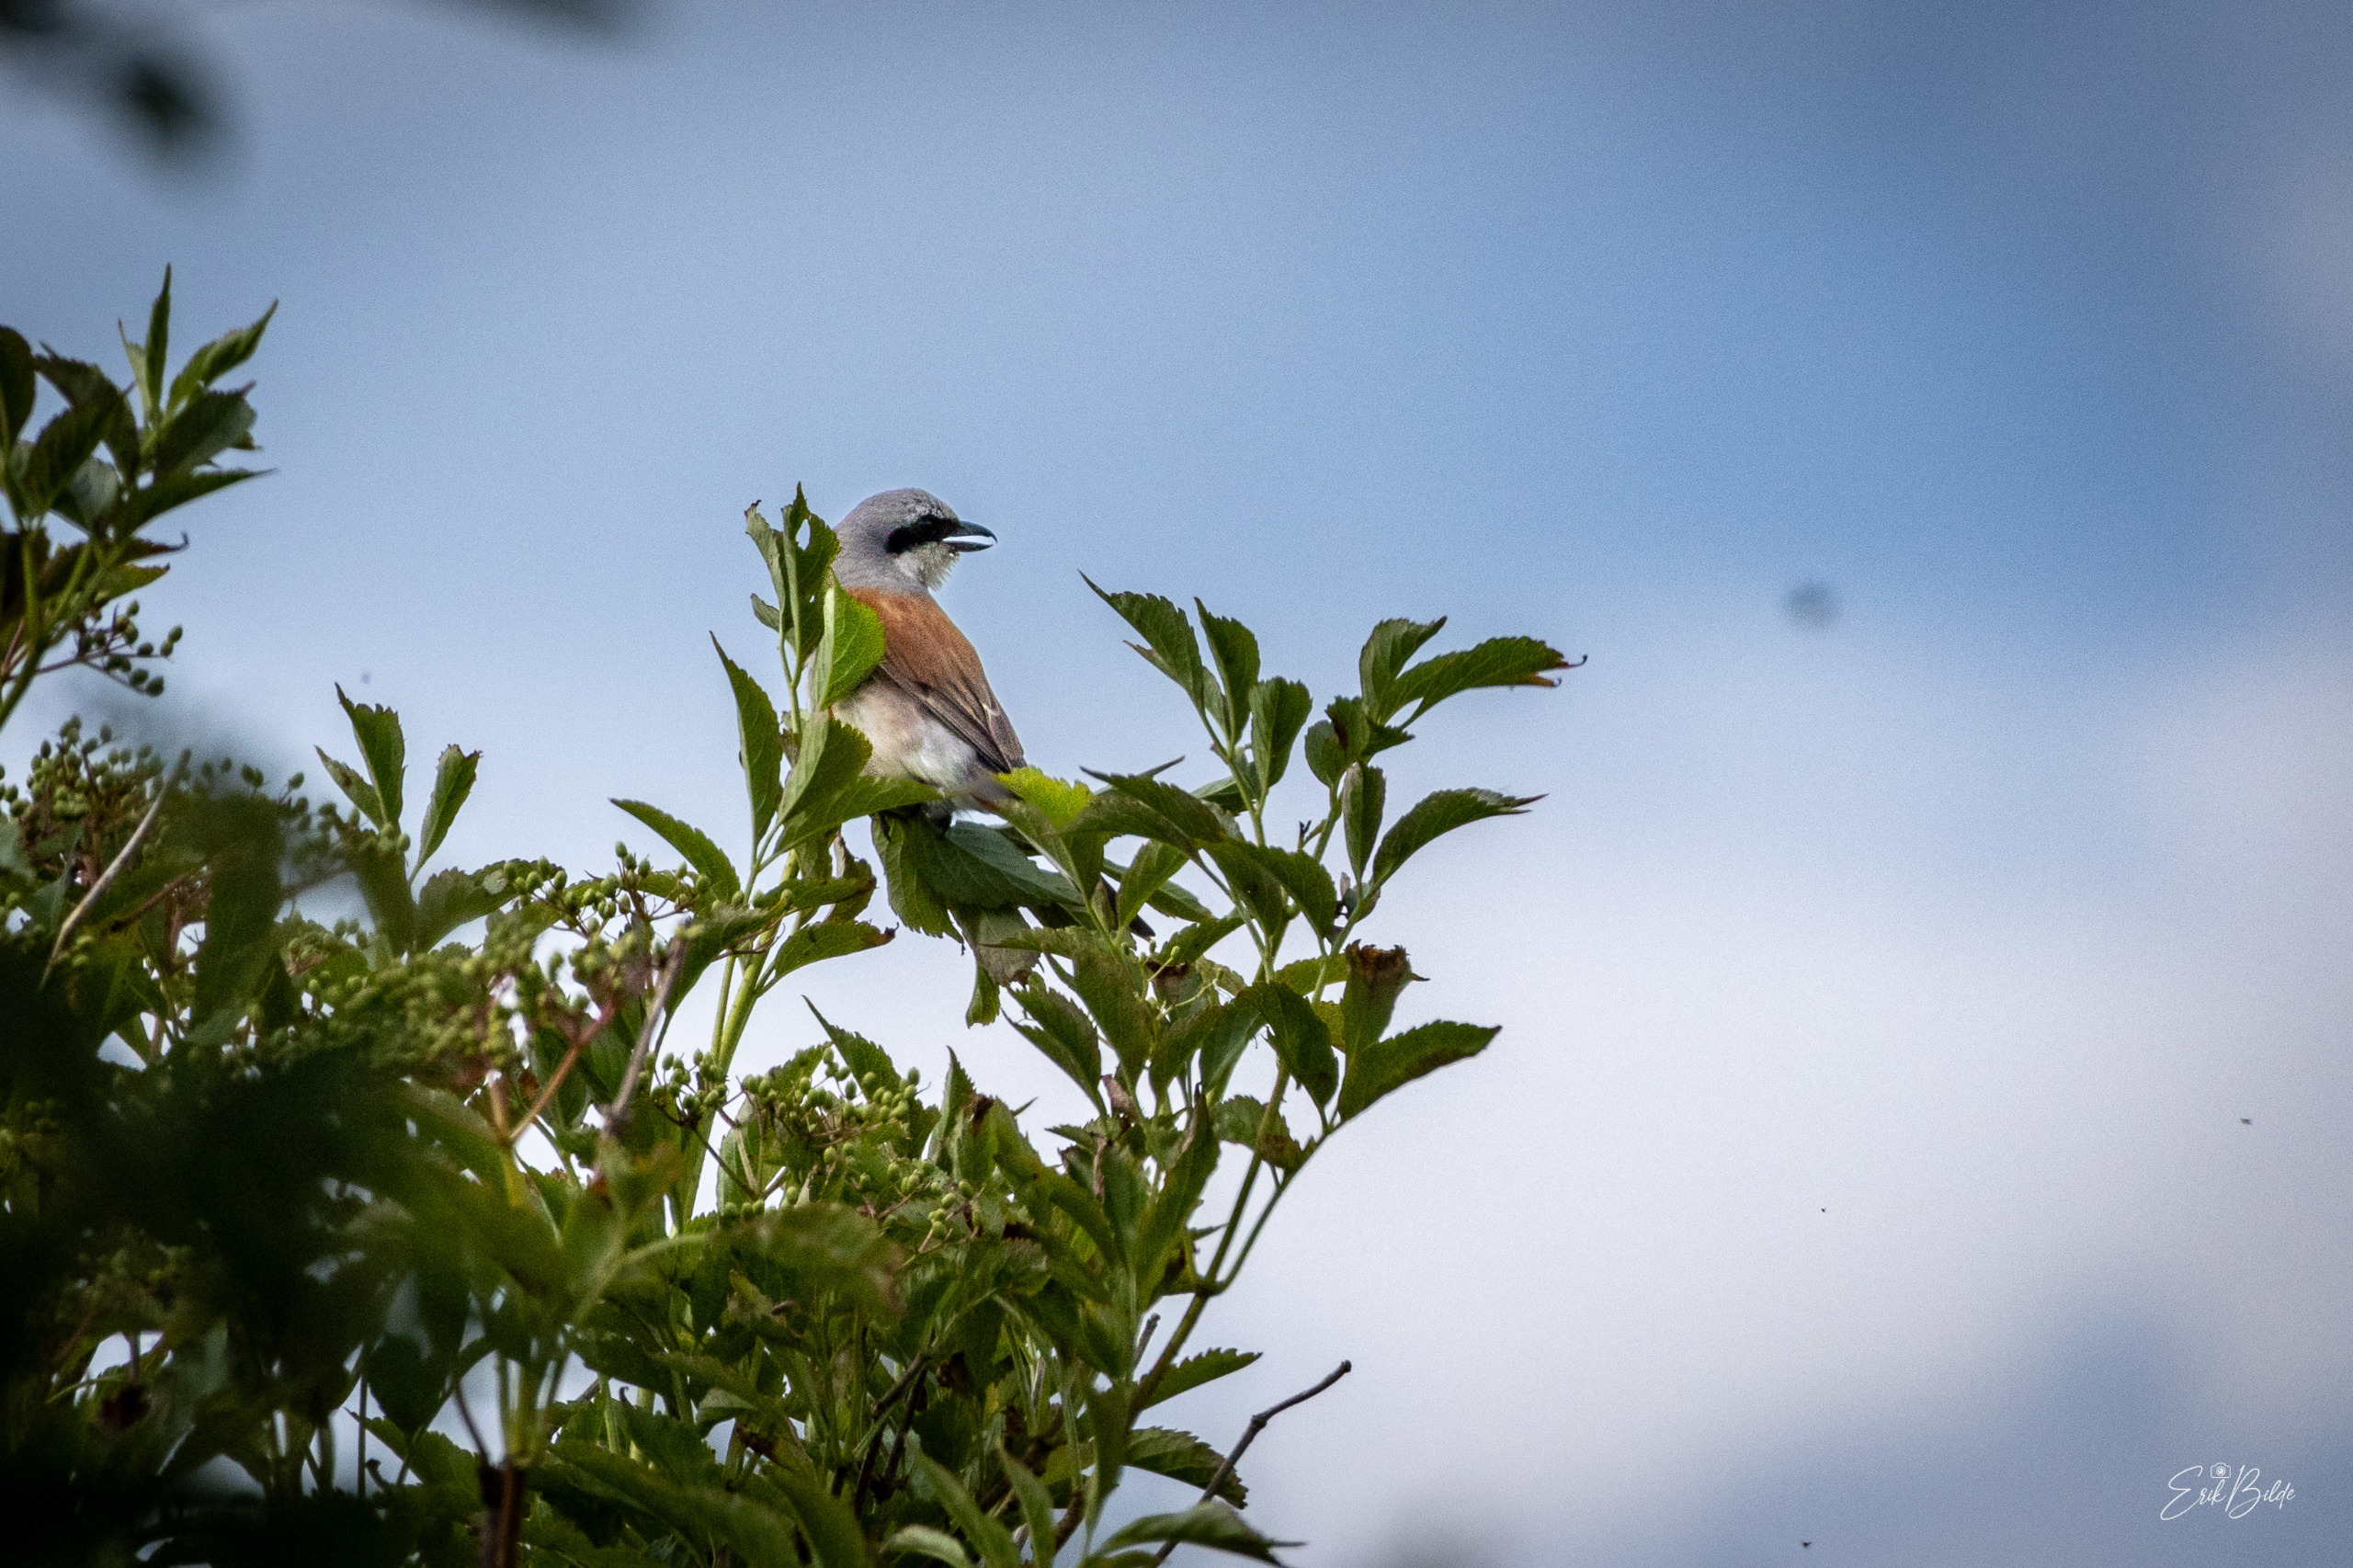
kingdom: Animalia
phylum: Chordata
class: Aves
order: Passeriformes
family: Laniidae
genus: Lanius
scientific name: Lanius collurio
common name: Rødrygget tornskade
